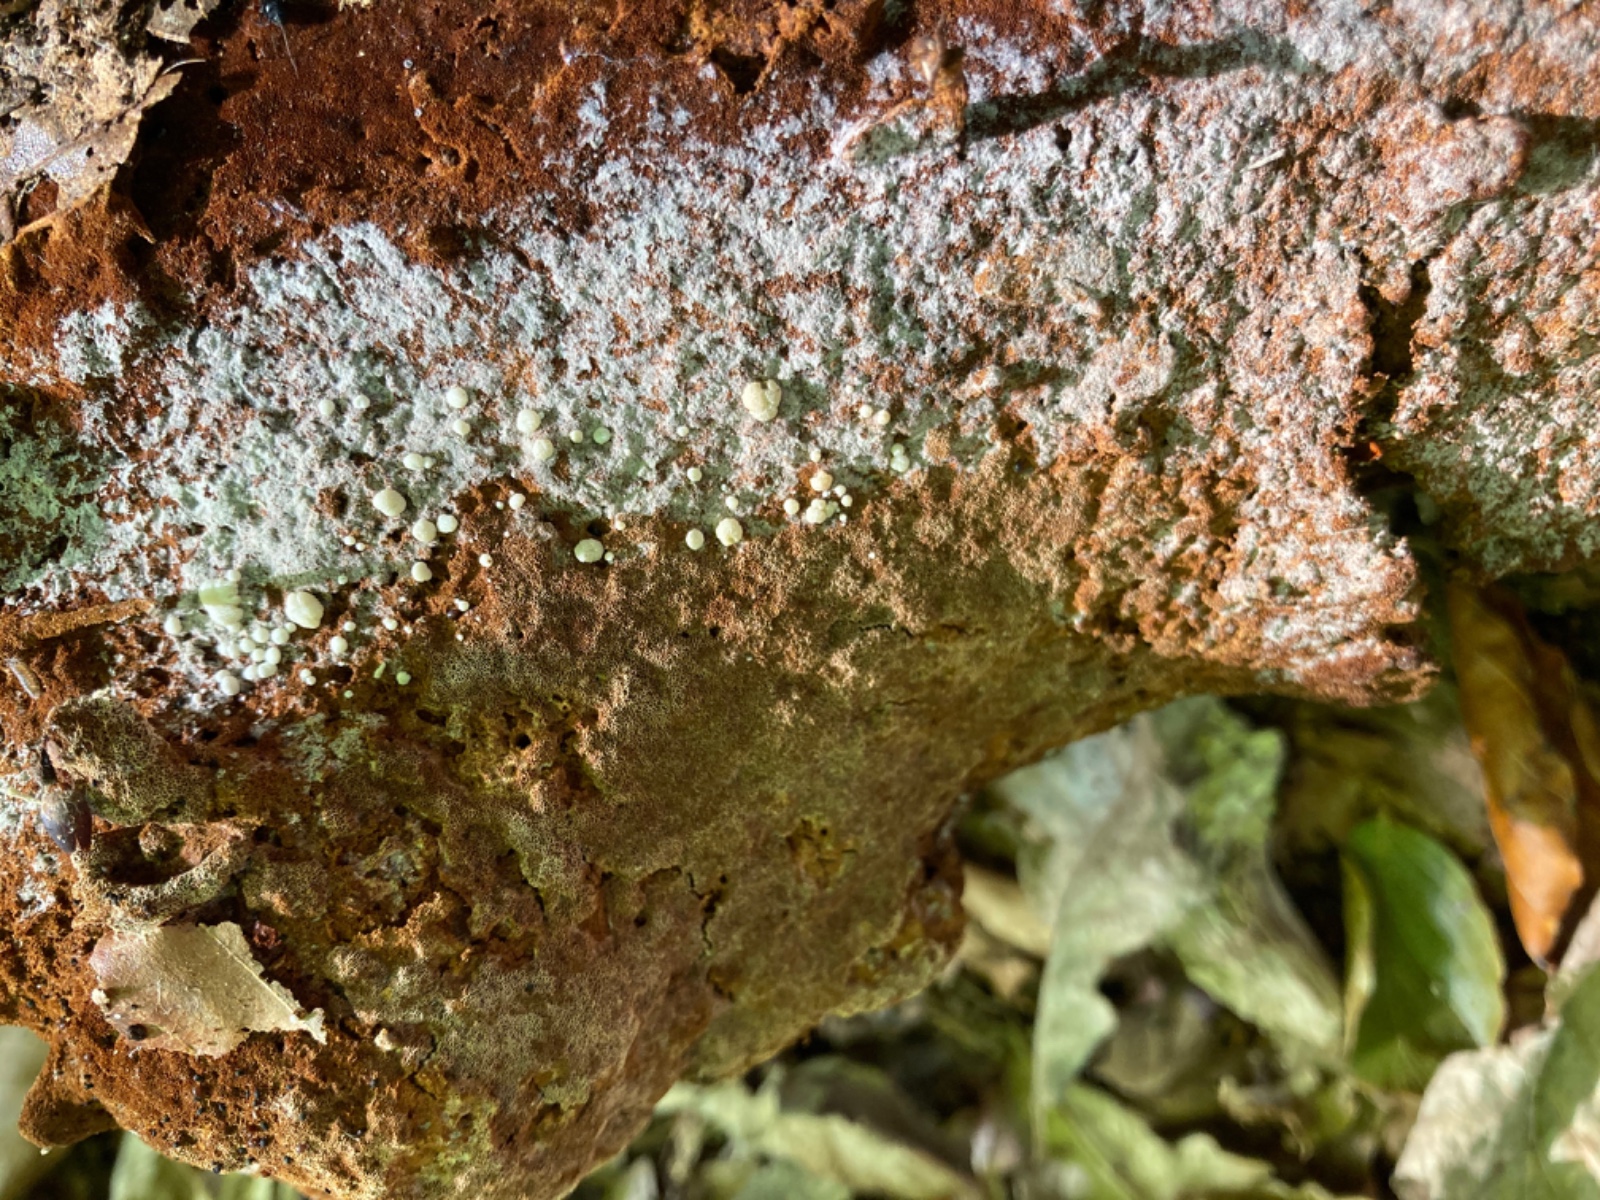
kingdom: Fungi
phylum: Ascomycota
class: Sordariomycetes
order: Hypocreales
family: Hypocreaceae
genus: Trichoderma
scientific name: Trichoderma phellinicola
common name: ildpore-kødkerne
